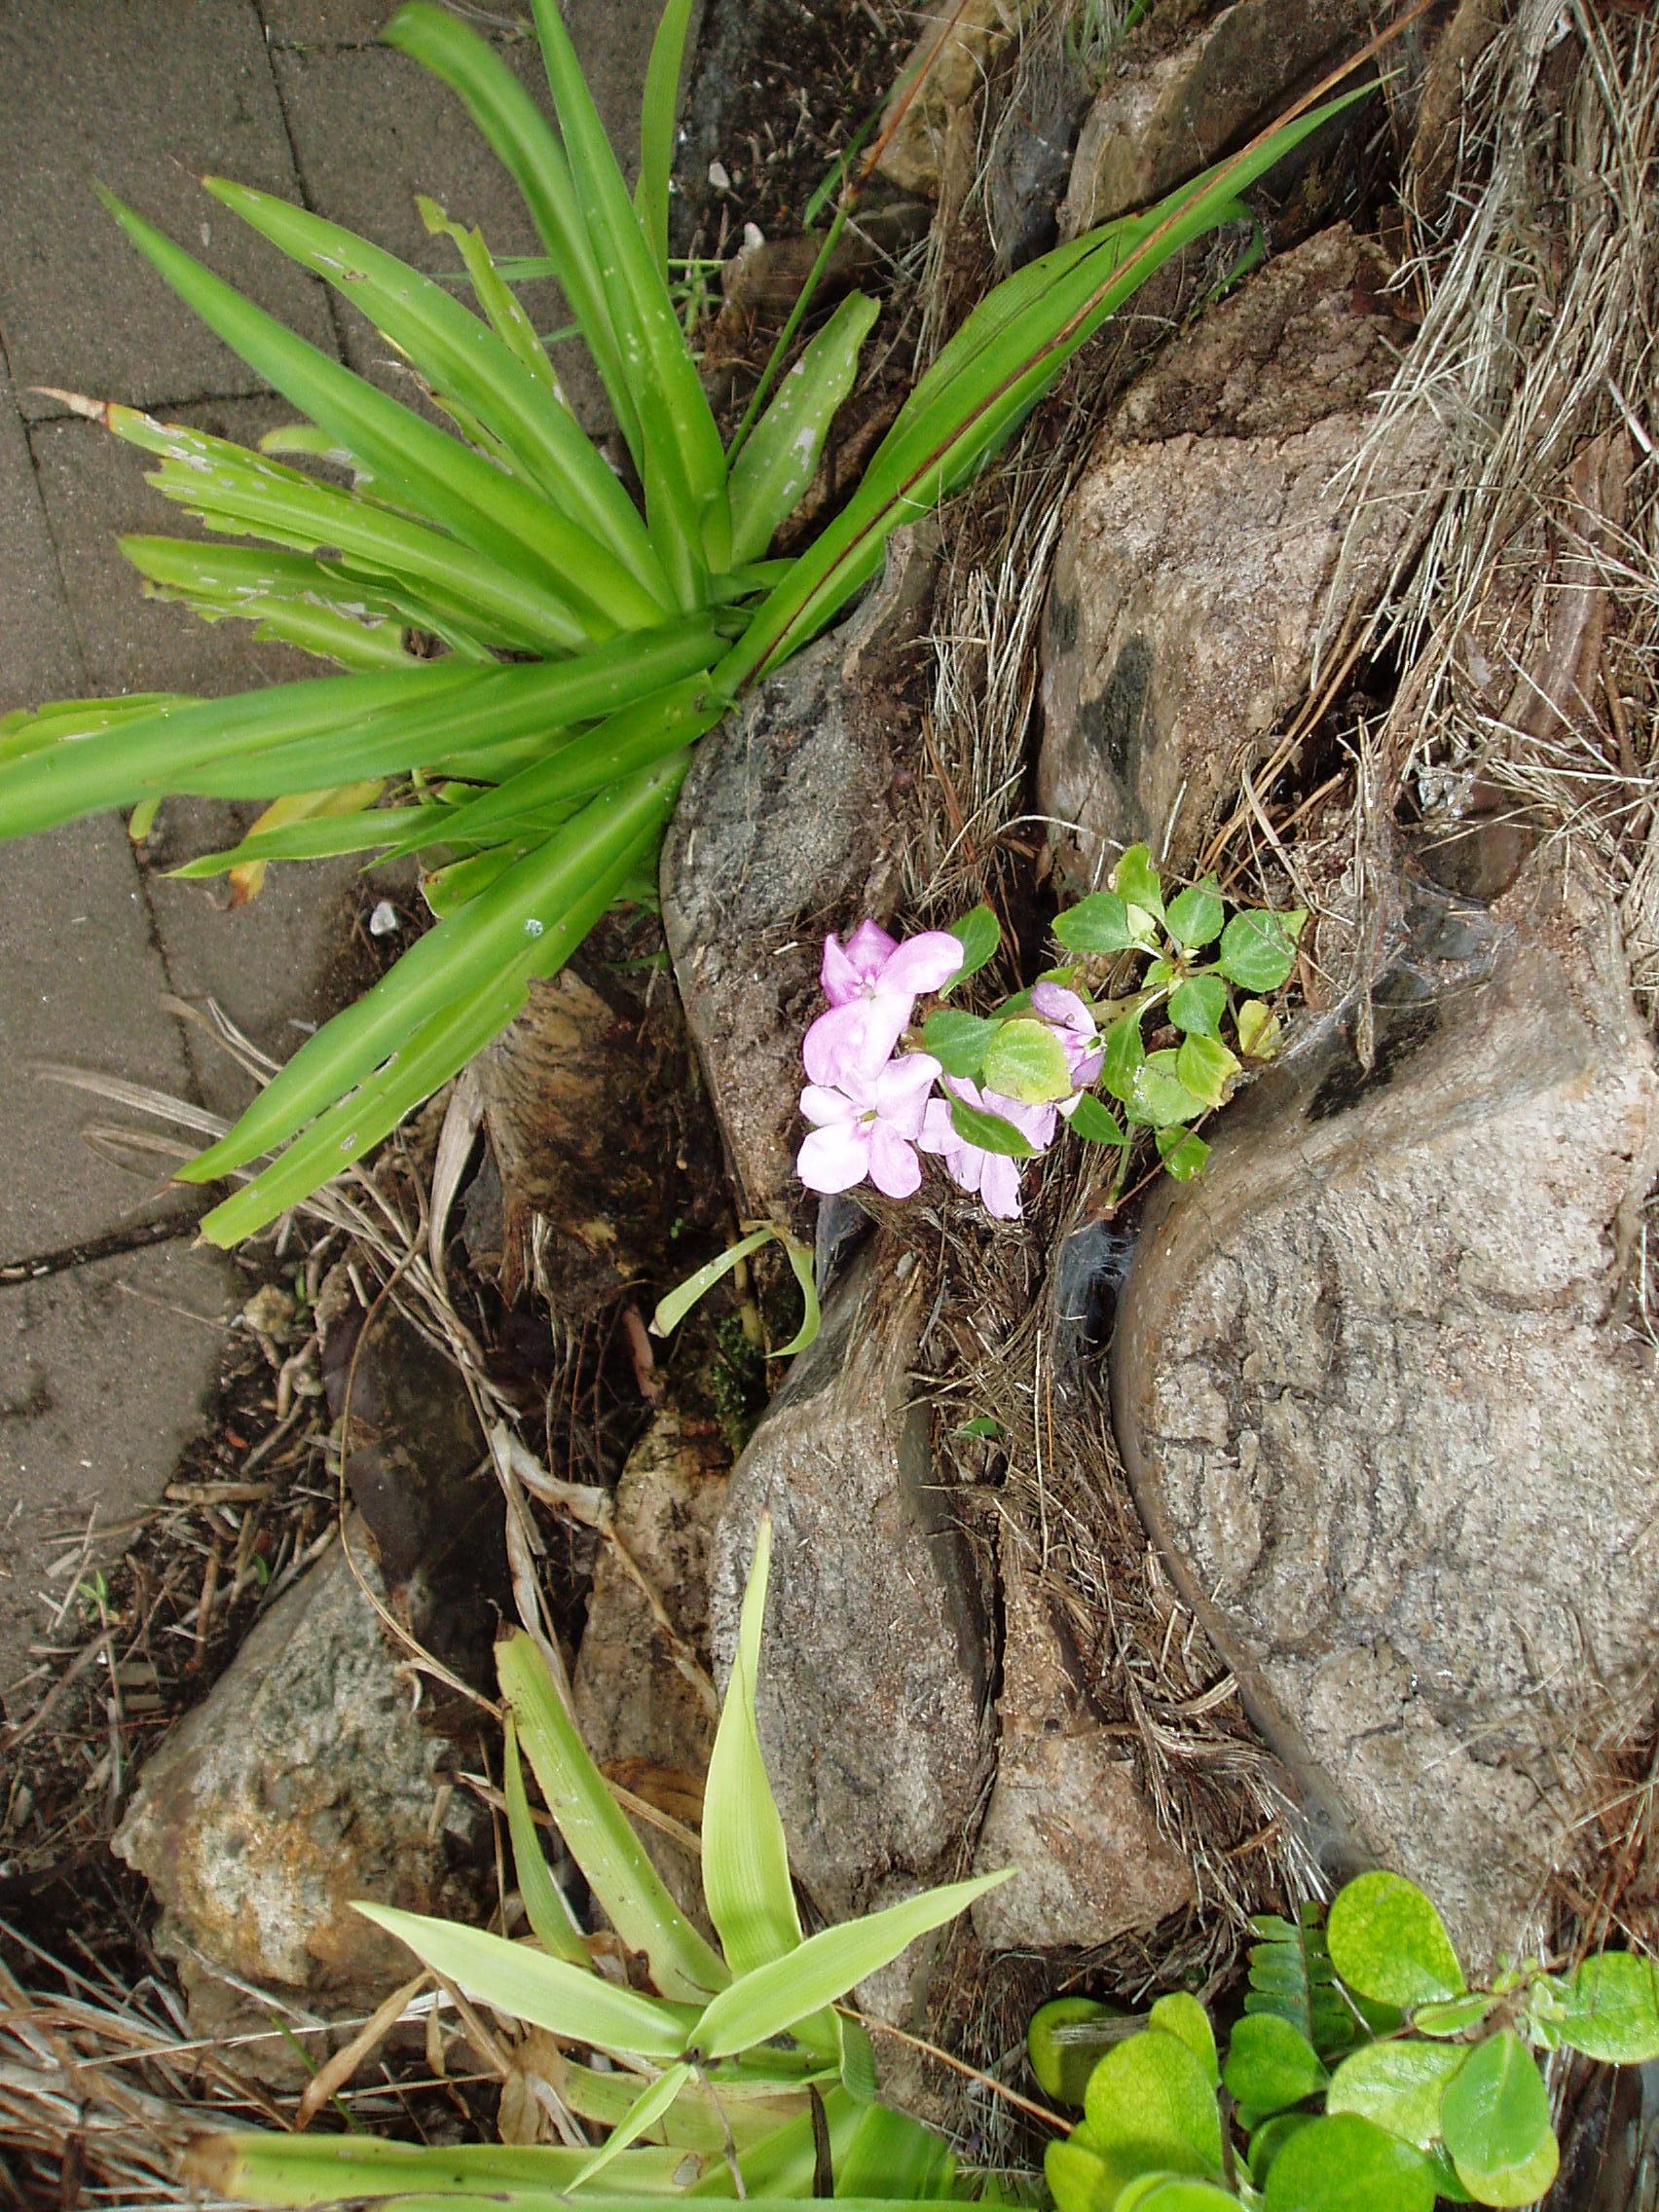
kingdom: Plantae
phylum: Tracheophyta
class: Magnoliopsida
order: Ericales
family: Balsaminaceae
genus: Impatiens
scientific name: Impatiens walleriana
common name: Buzzy lizzy
